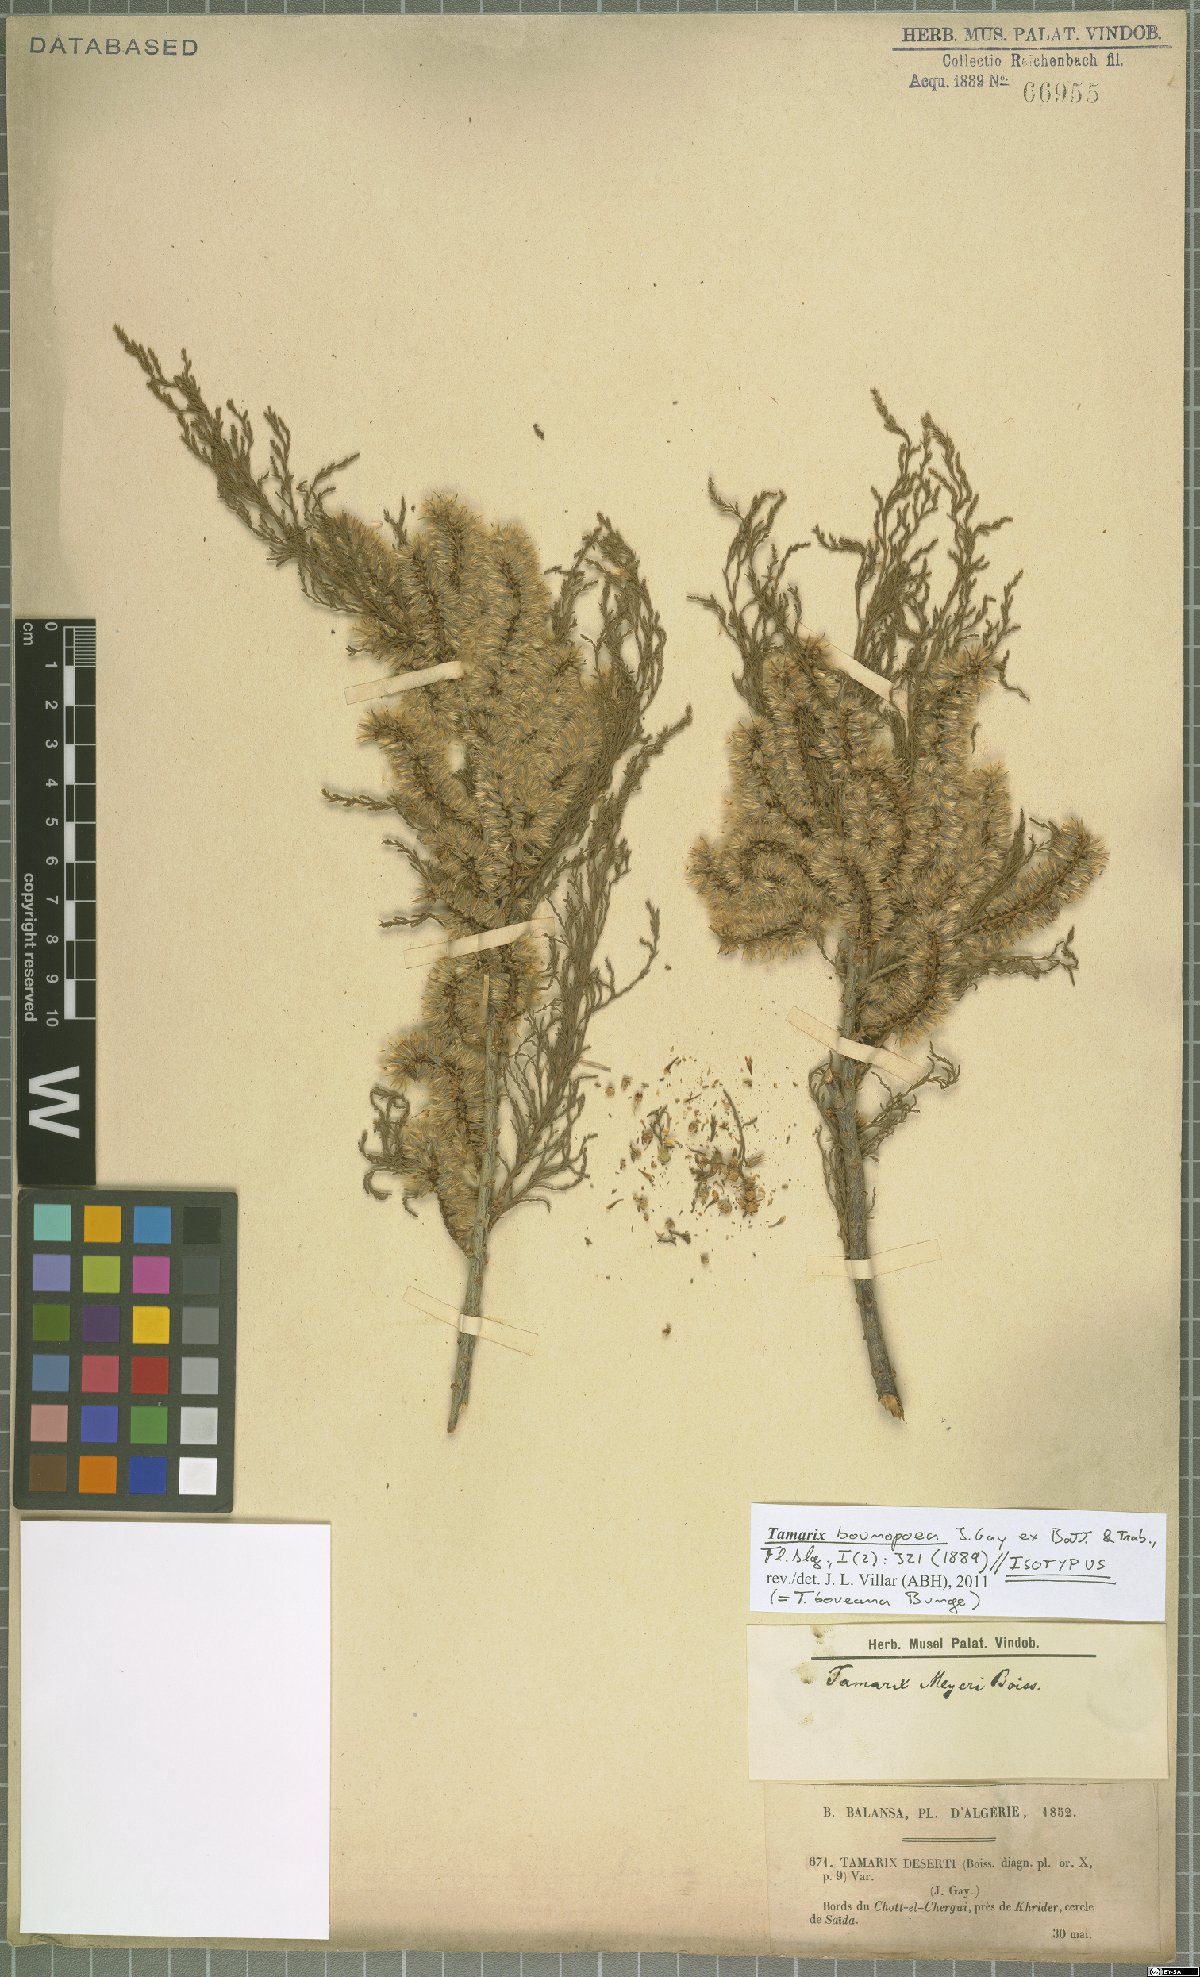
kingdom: Plantae
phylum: Tracheophyta
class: Magnoliopsida
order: Caryophyllales
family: Tamaricaceae
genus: Tamarix
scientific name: Tamarix boveana
